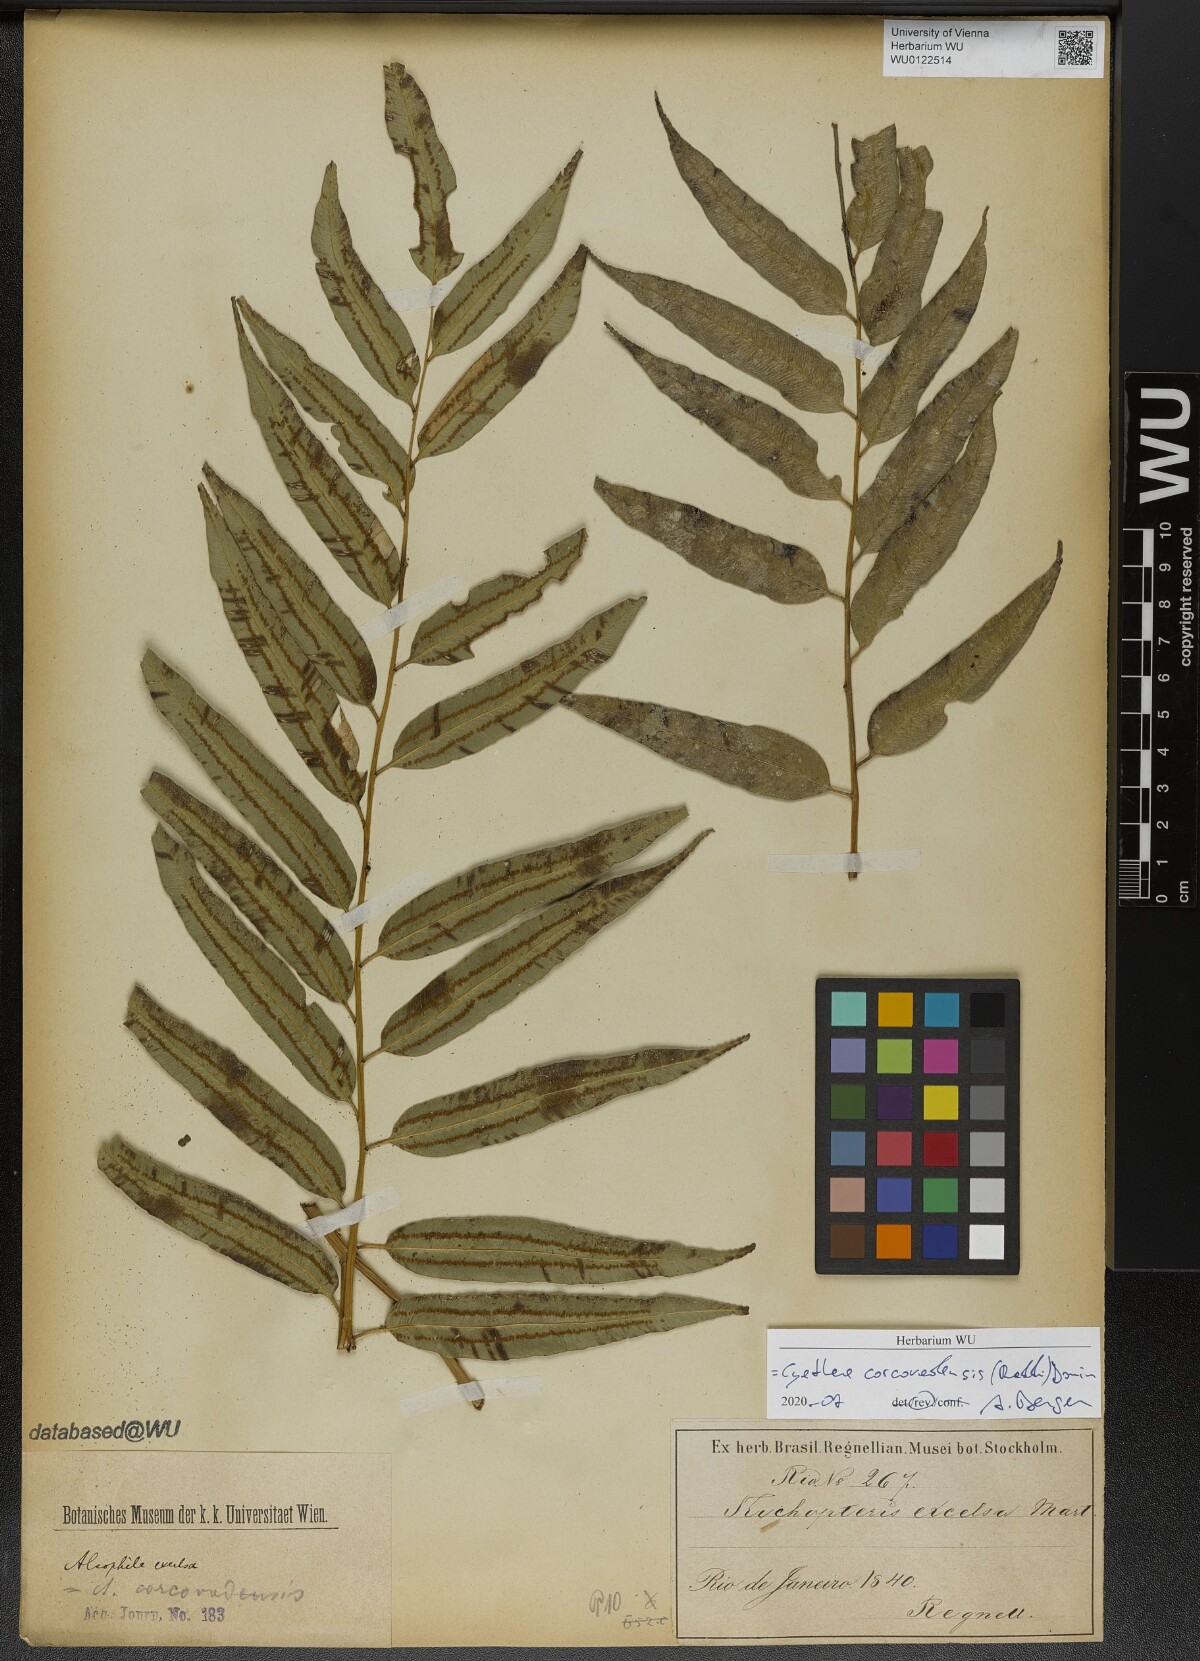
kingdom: Plantae
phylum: Tracheophyta
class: Polypodiopsida
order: Cyatheales
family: Cyatheaceae
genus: Cyathea
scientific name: Cyathea corcovadensis
